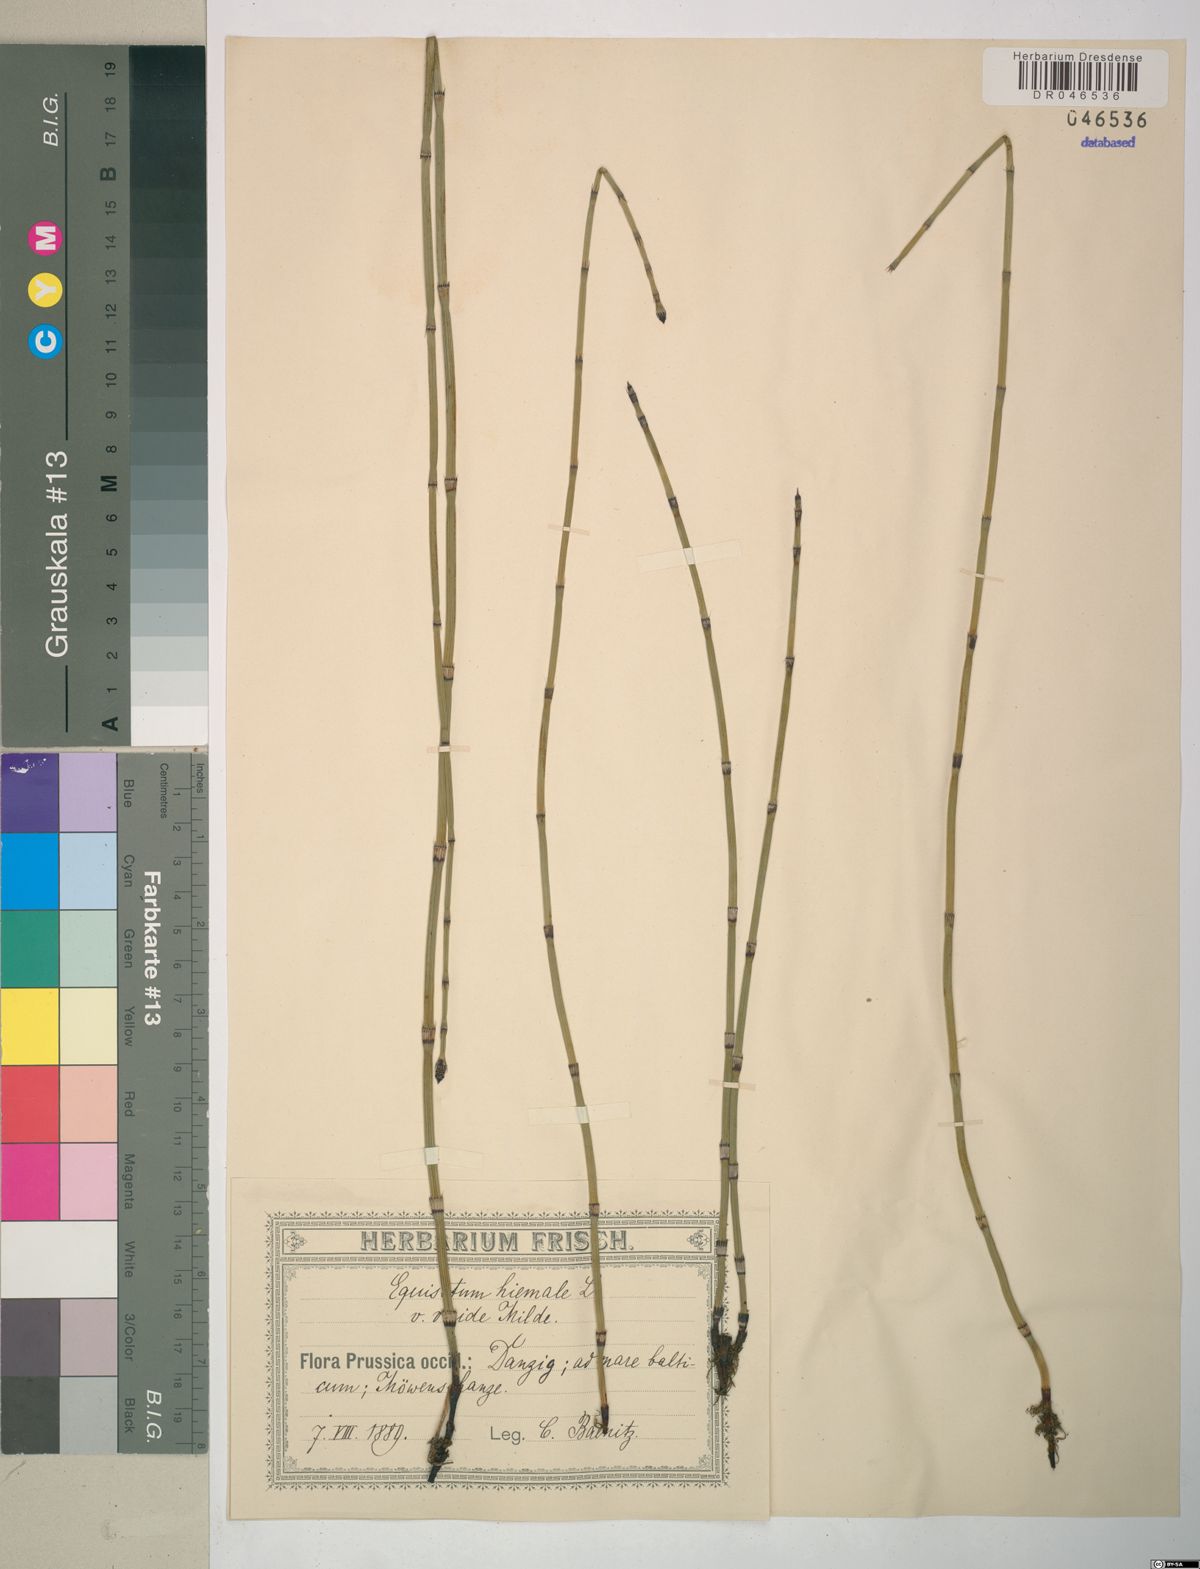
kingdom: Plantae
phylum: Tracheophyta
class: Polypodiopsida
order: Equisetales
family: Equisetaceae
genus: Equisetum
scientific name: Equisetum hyemale
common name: Rough horsetail
